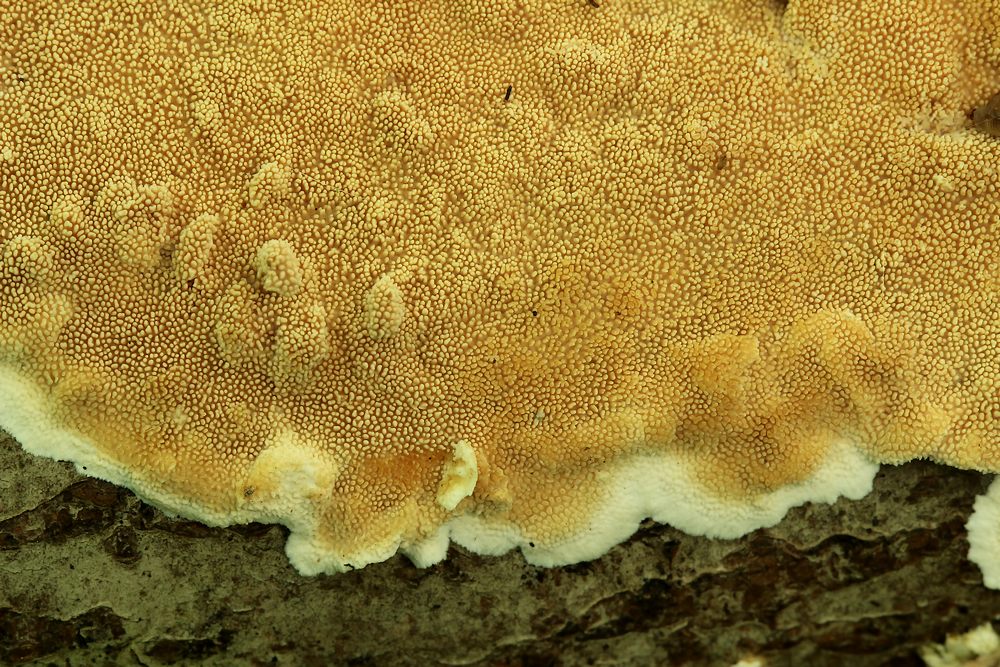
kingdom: Fungi
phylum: Basidiomycota
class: Agaricomycetes
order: Polyporales
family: Steccherinaceae
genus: Steccherinum
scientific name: Steccherinum ochraceum
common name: almindelig skønpig
